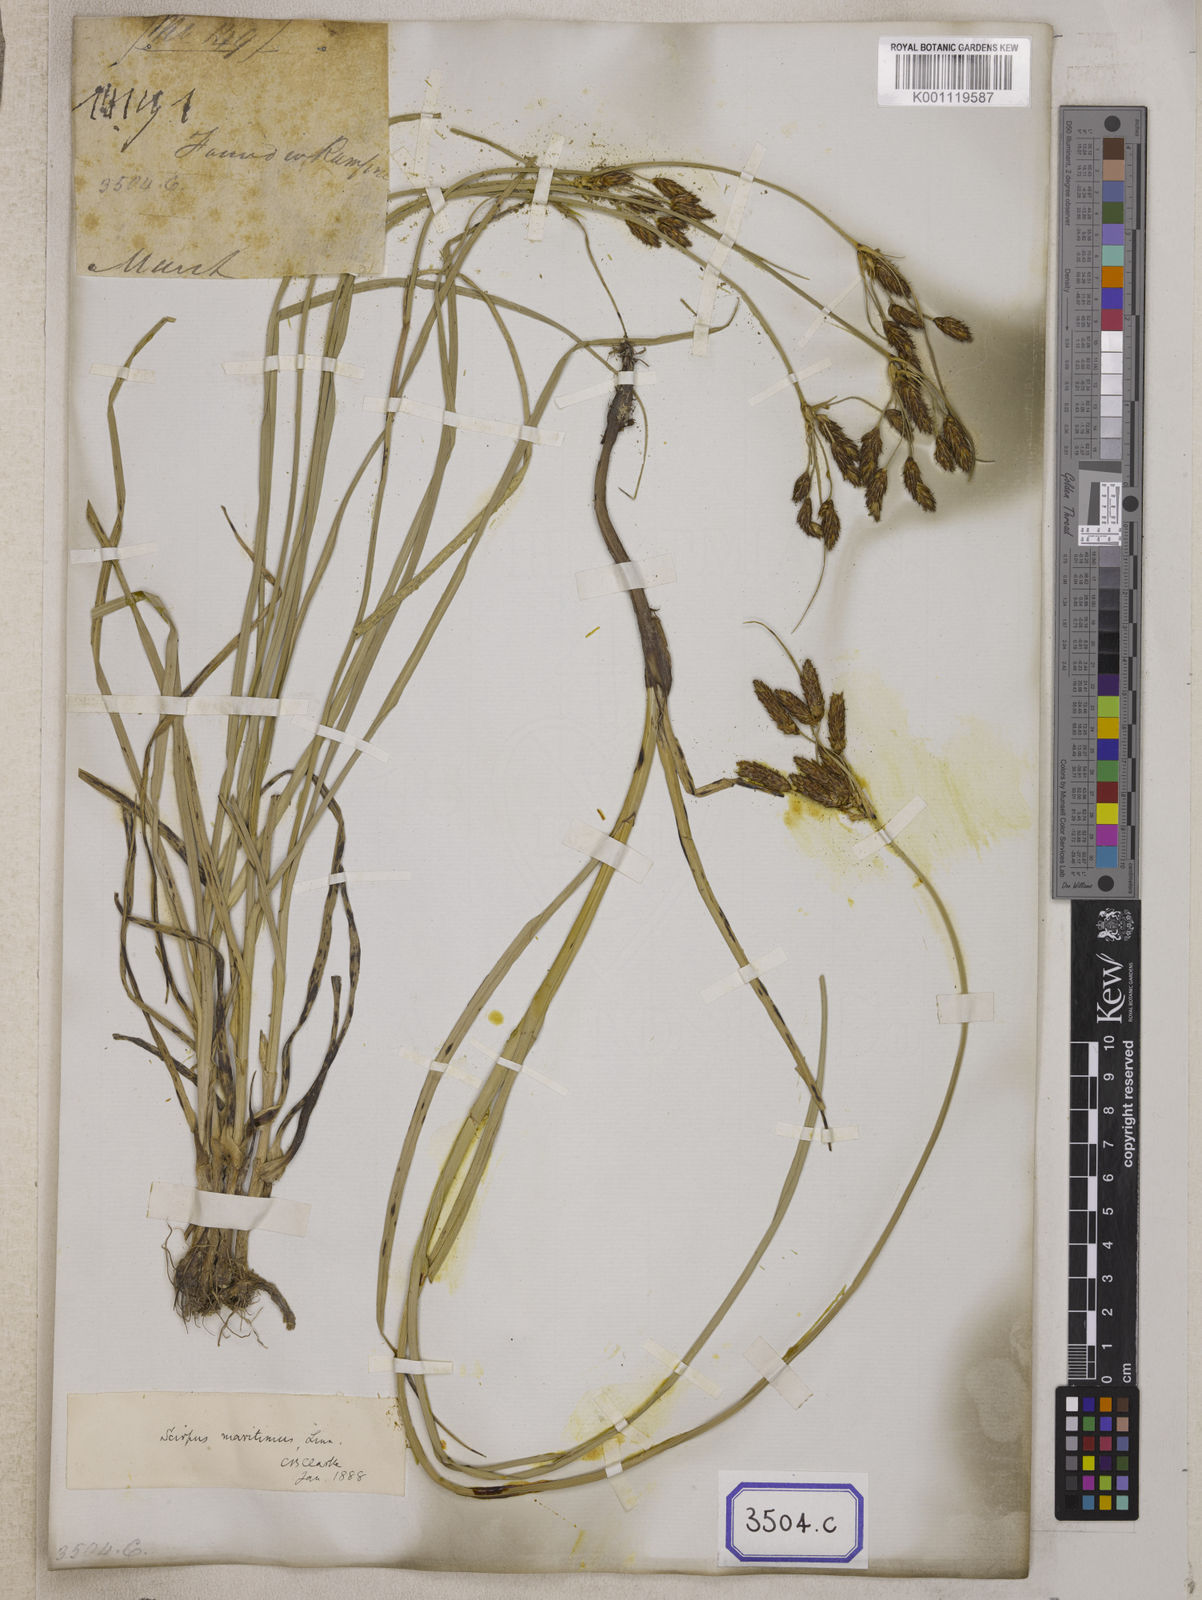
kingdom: Plantae
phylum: Tracheophyta
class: Liliopsida
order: Poales
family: Cyperaceae
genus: Fimbristylis
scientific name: Fimbristylis
